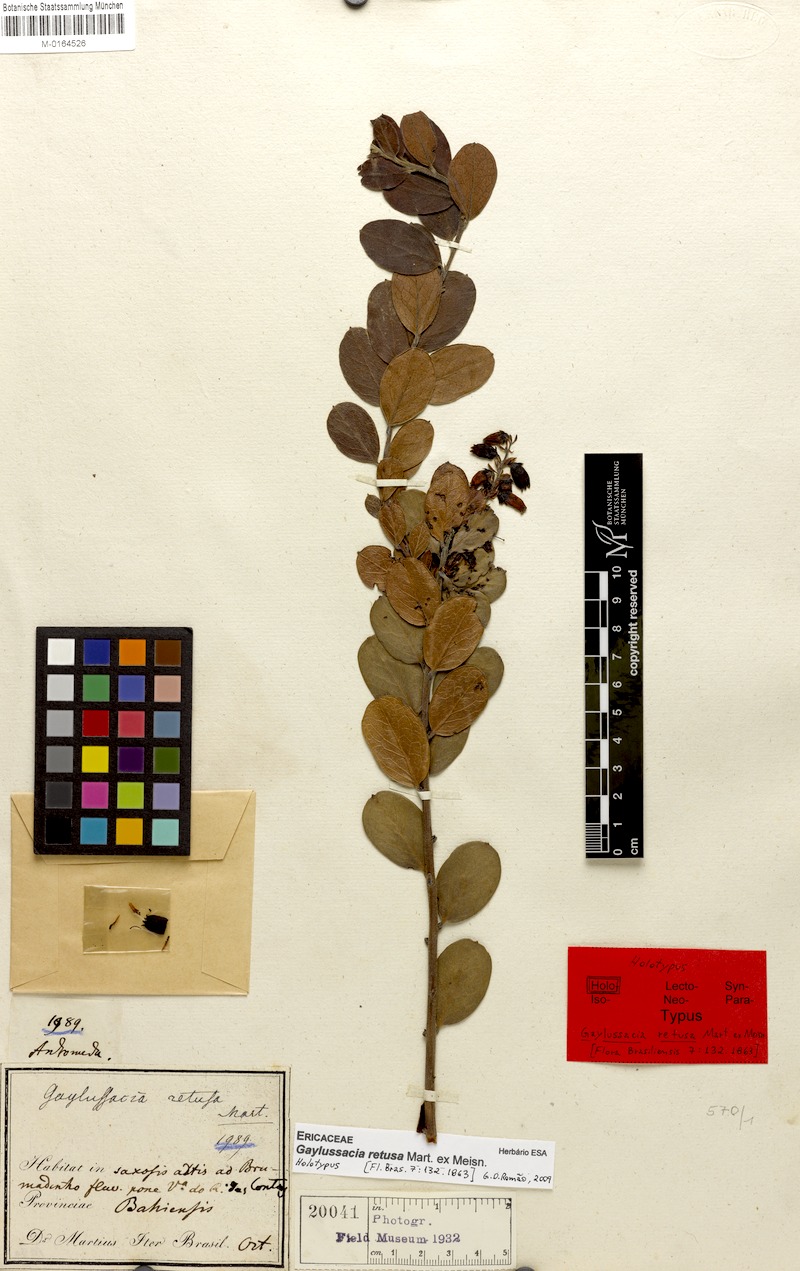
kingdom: Plantae
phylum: Tracheophyta
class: Magnoliopsida
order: Ericales
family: Ericaceae
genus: Gaylussacia
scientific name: Gaylussacia retusa
